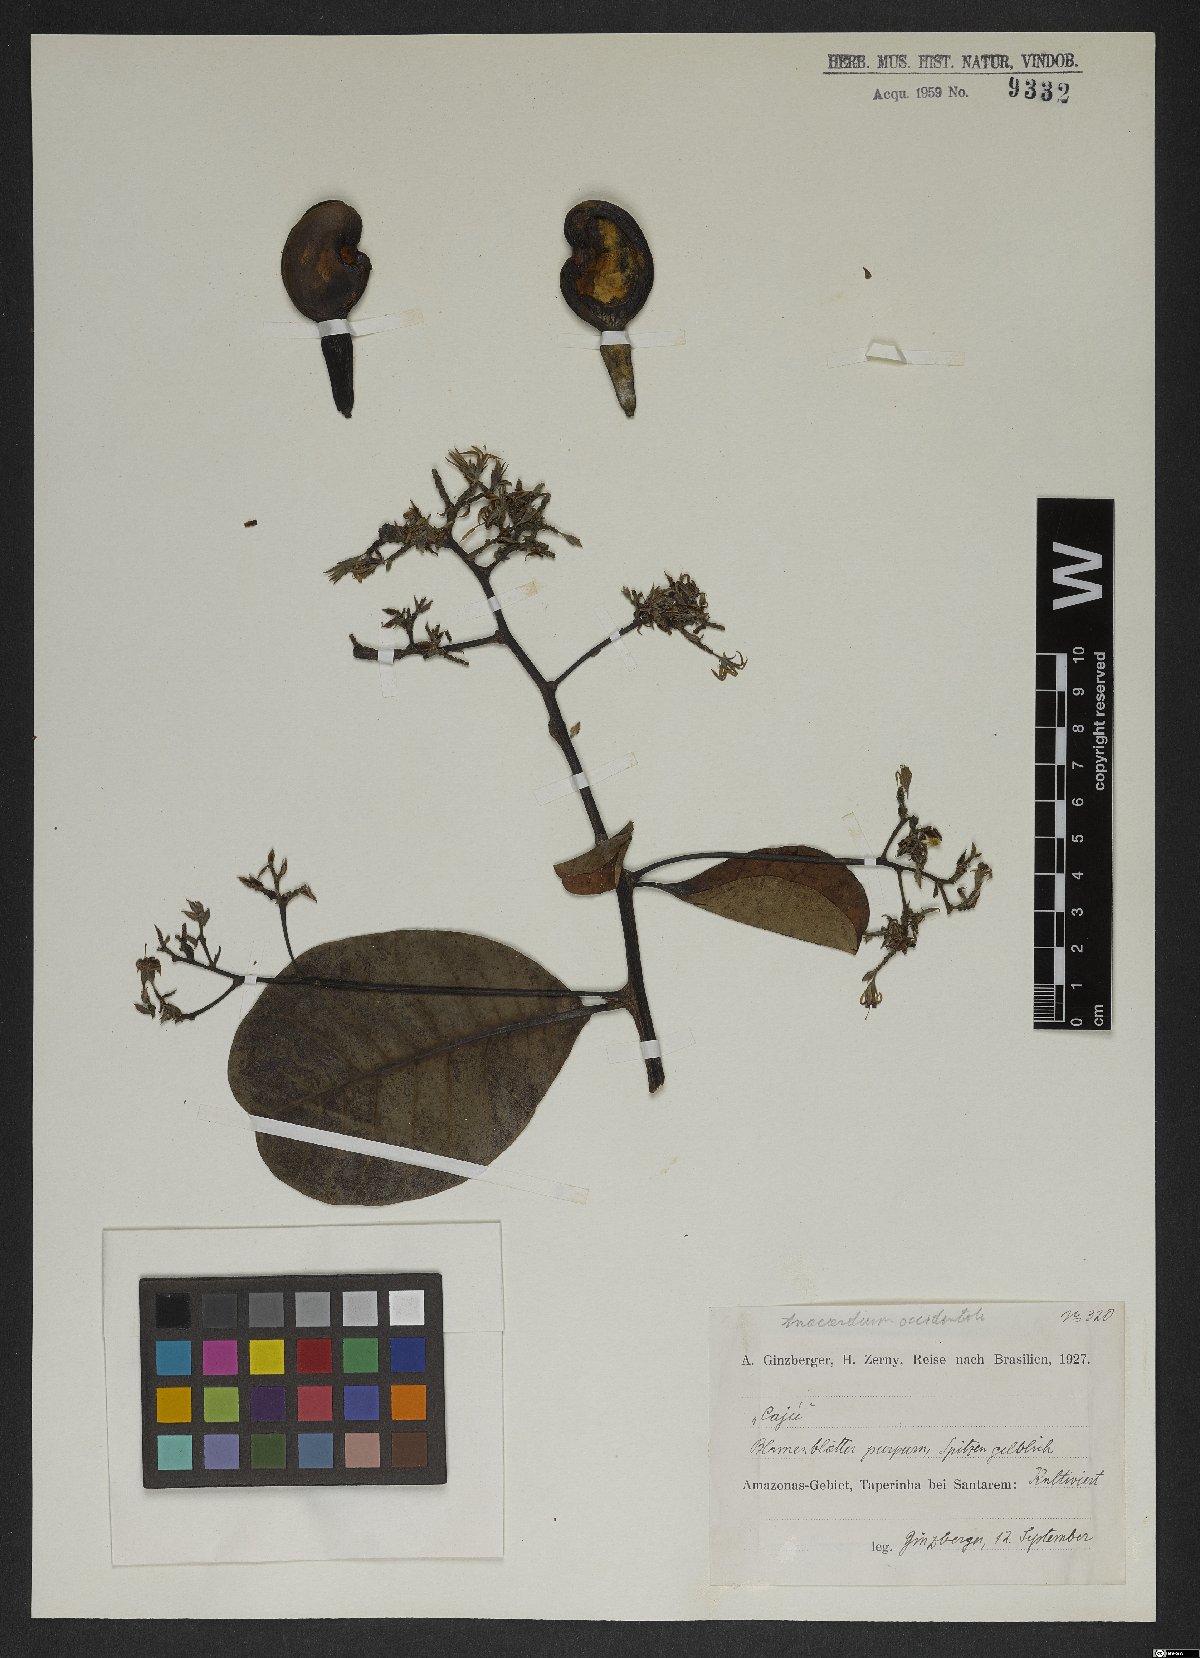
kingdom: Plantae
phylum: Tracheophyta
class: Magnoliopsida
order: Sapindales
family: Anacardiaceae
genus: Anacardium
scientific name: Anacardium occidentale
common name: Cashew
